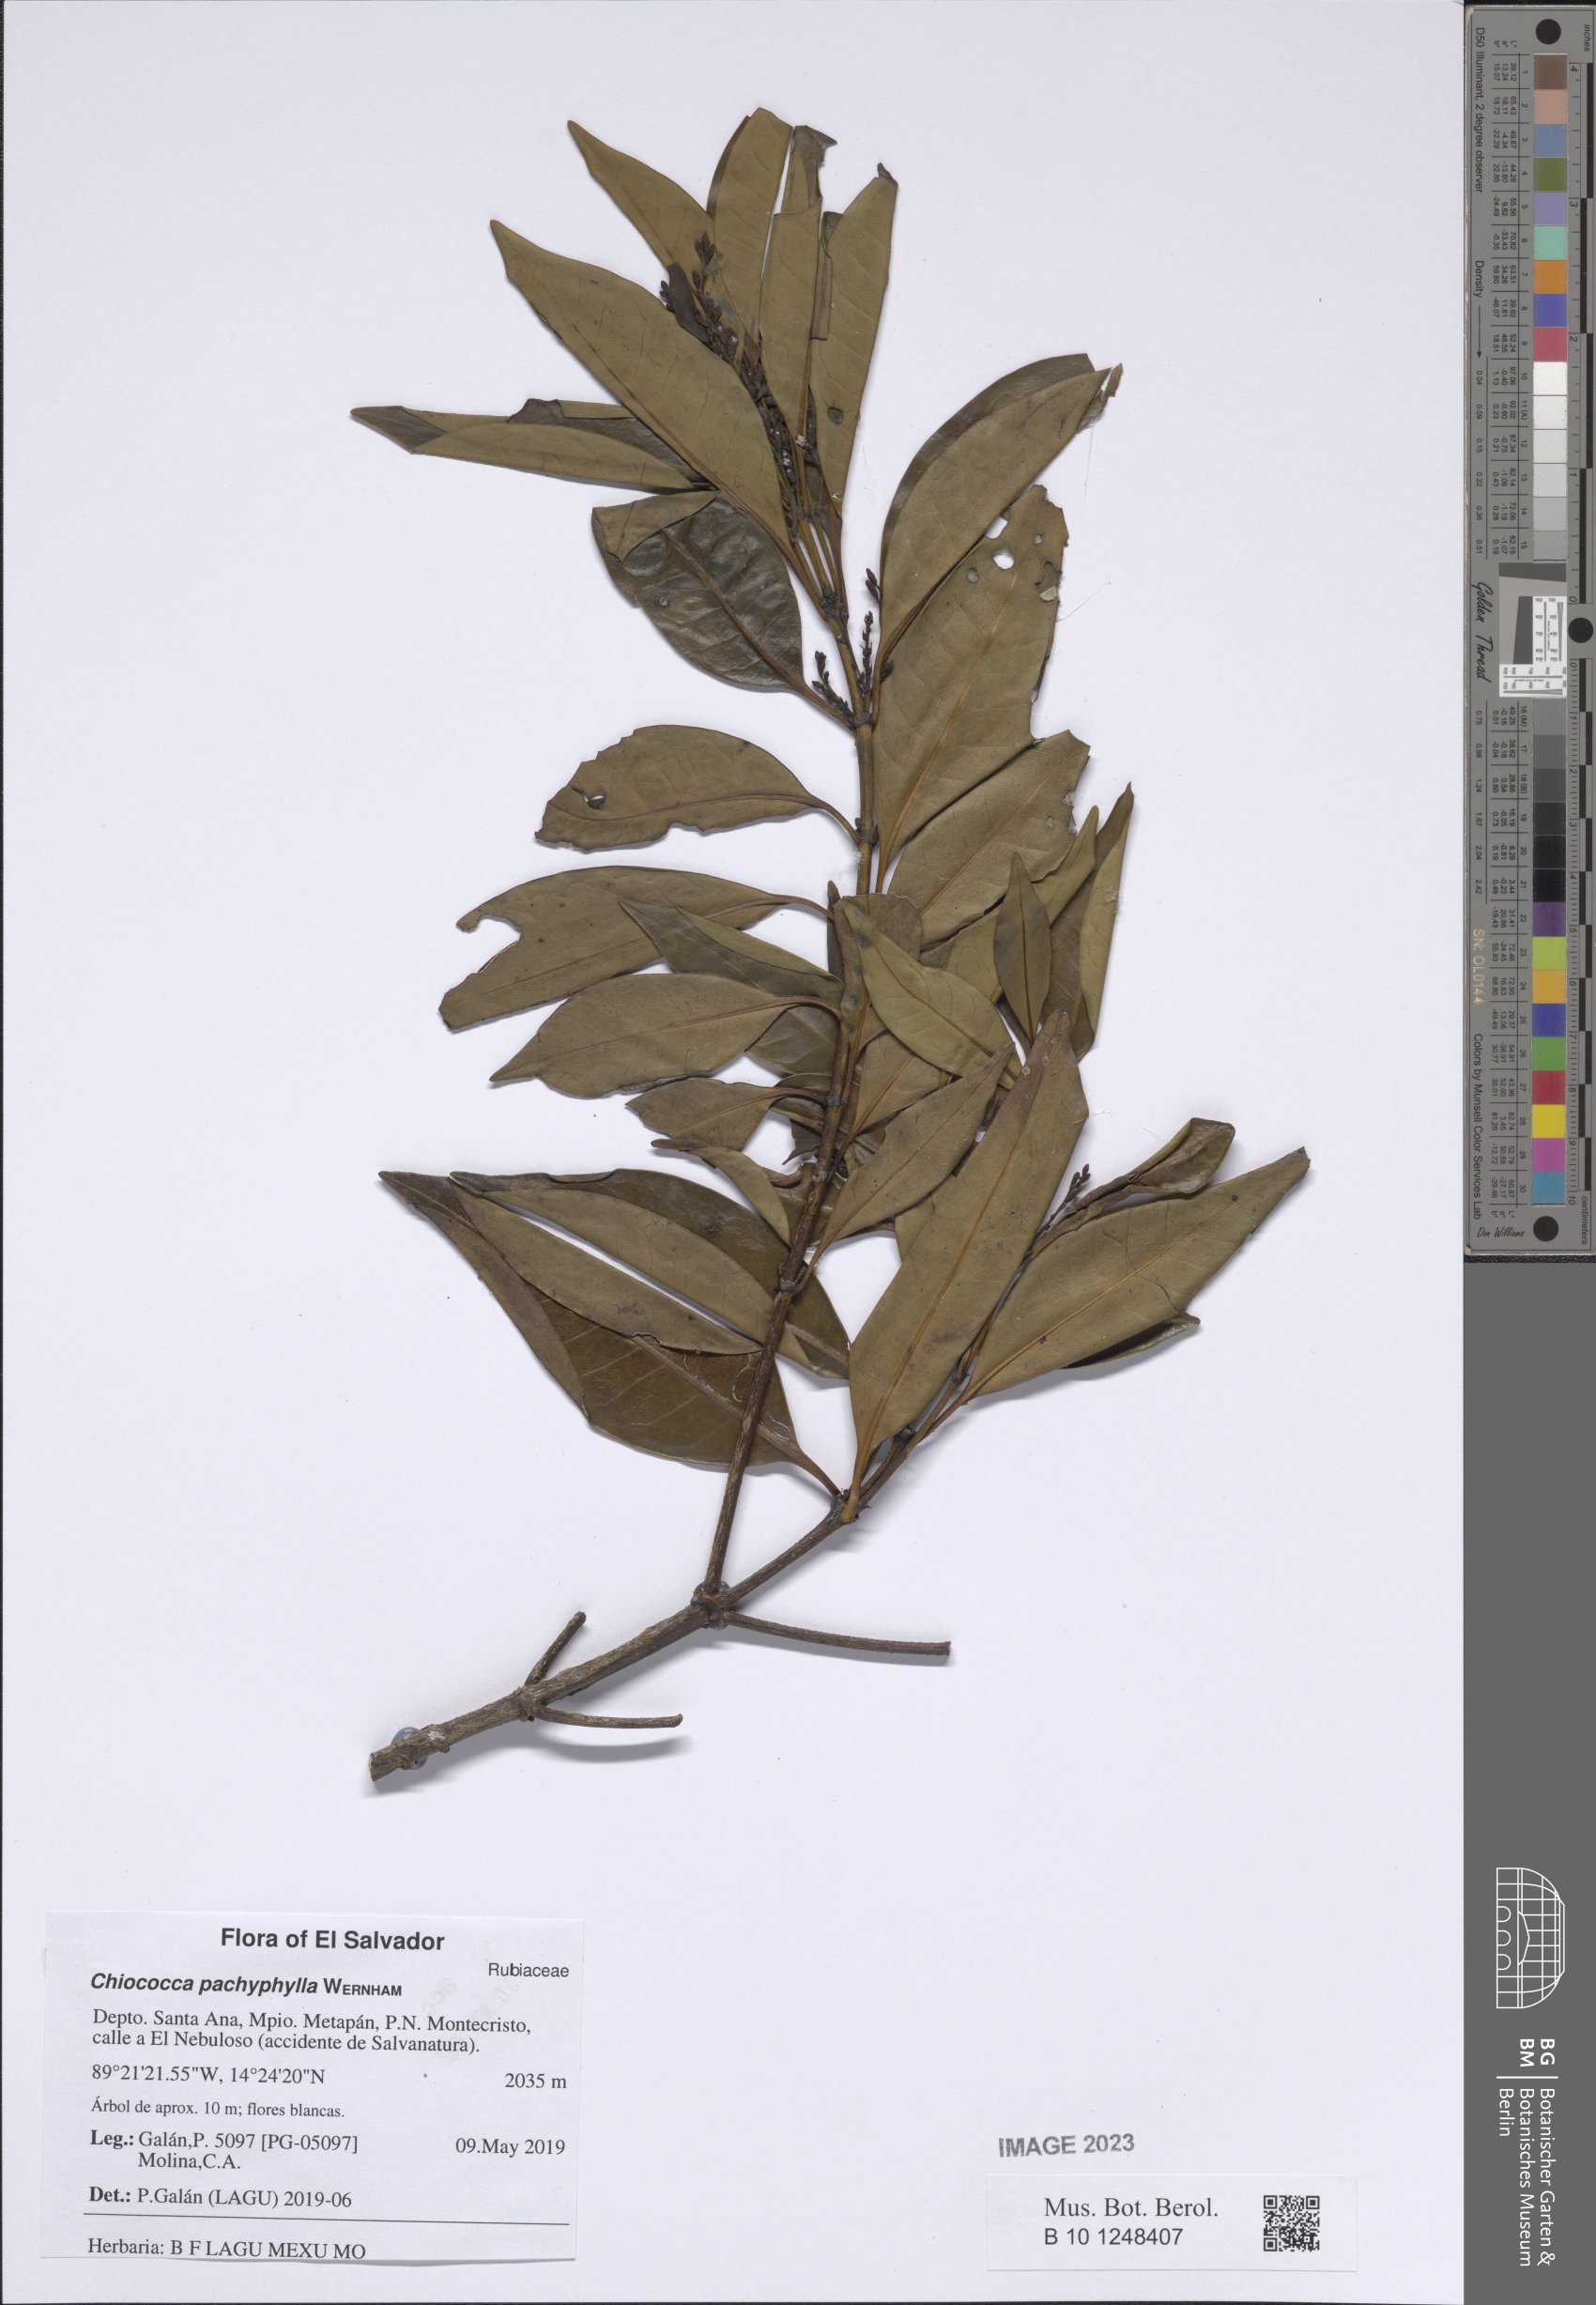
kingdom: Plantae
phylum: Tracheophyta
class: Magnoliopsida
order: Gentianales
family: Rubiaceae
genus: Chiococca
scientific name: Chiococca pachyphylla
